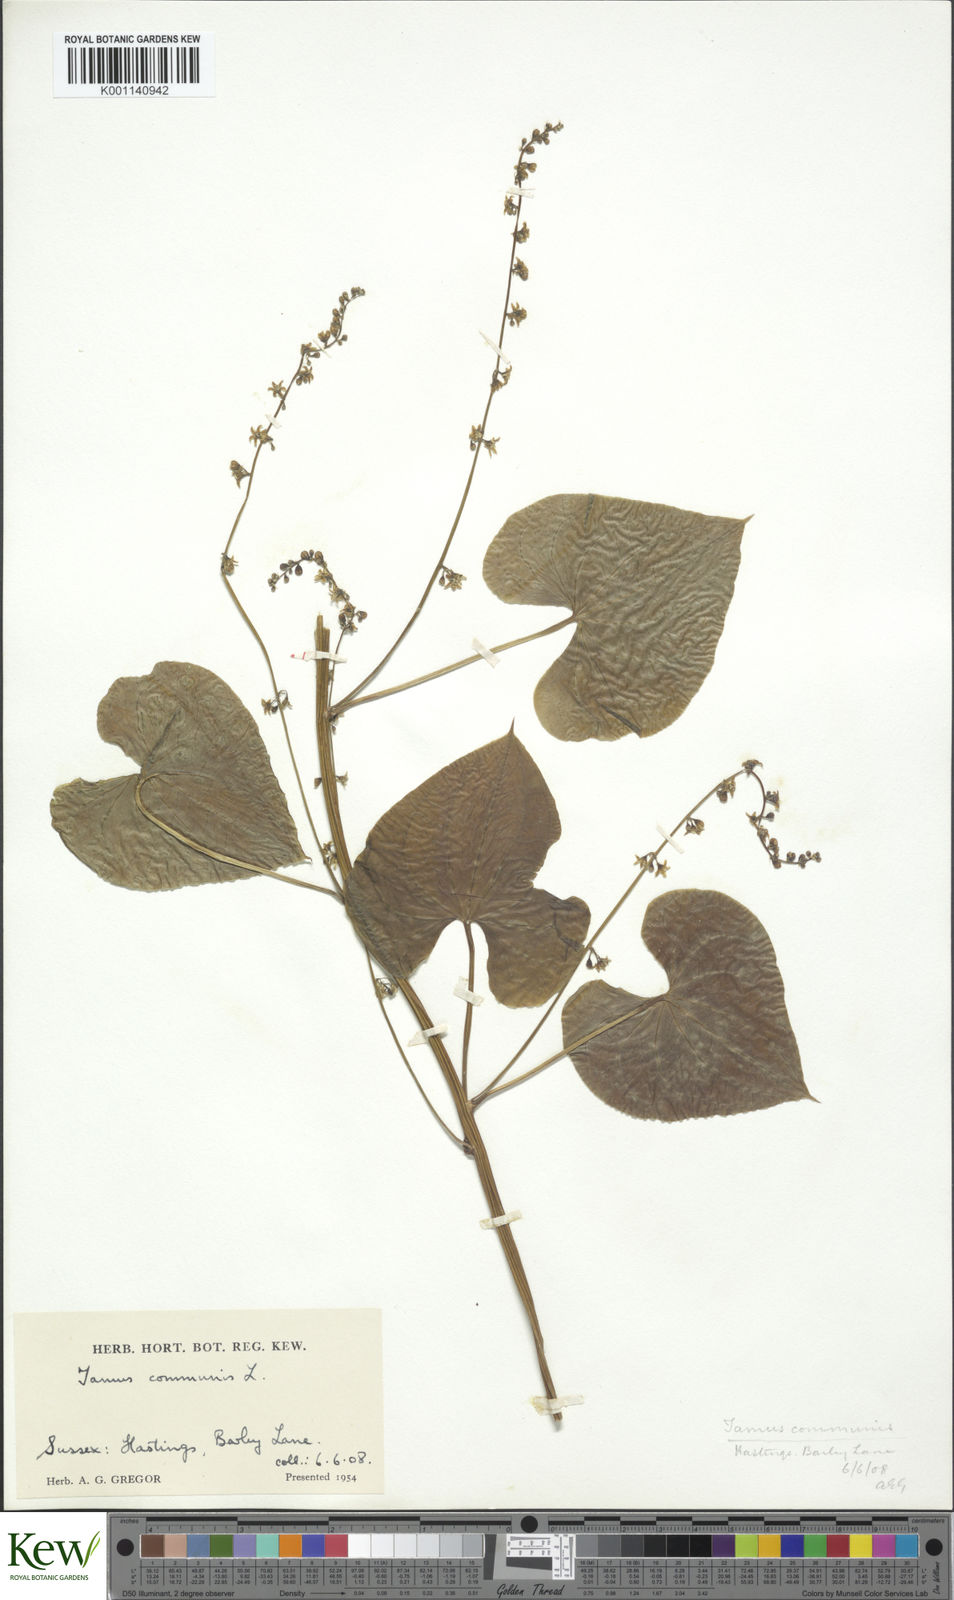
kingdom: Plantae
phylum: Tracheophyta
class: Liliopsida
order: Dioscoreales
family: Dioscoreaceae
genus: Dioscorea
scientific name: Dioscorea communis
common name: Black-bindweed
